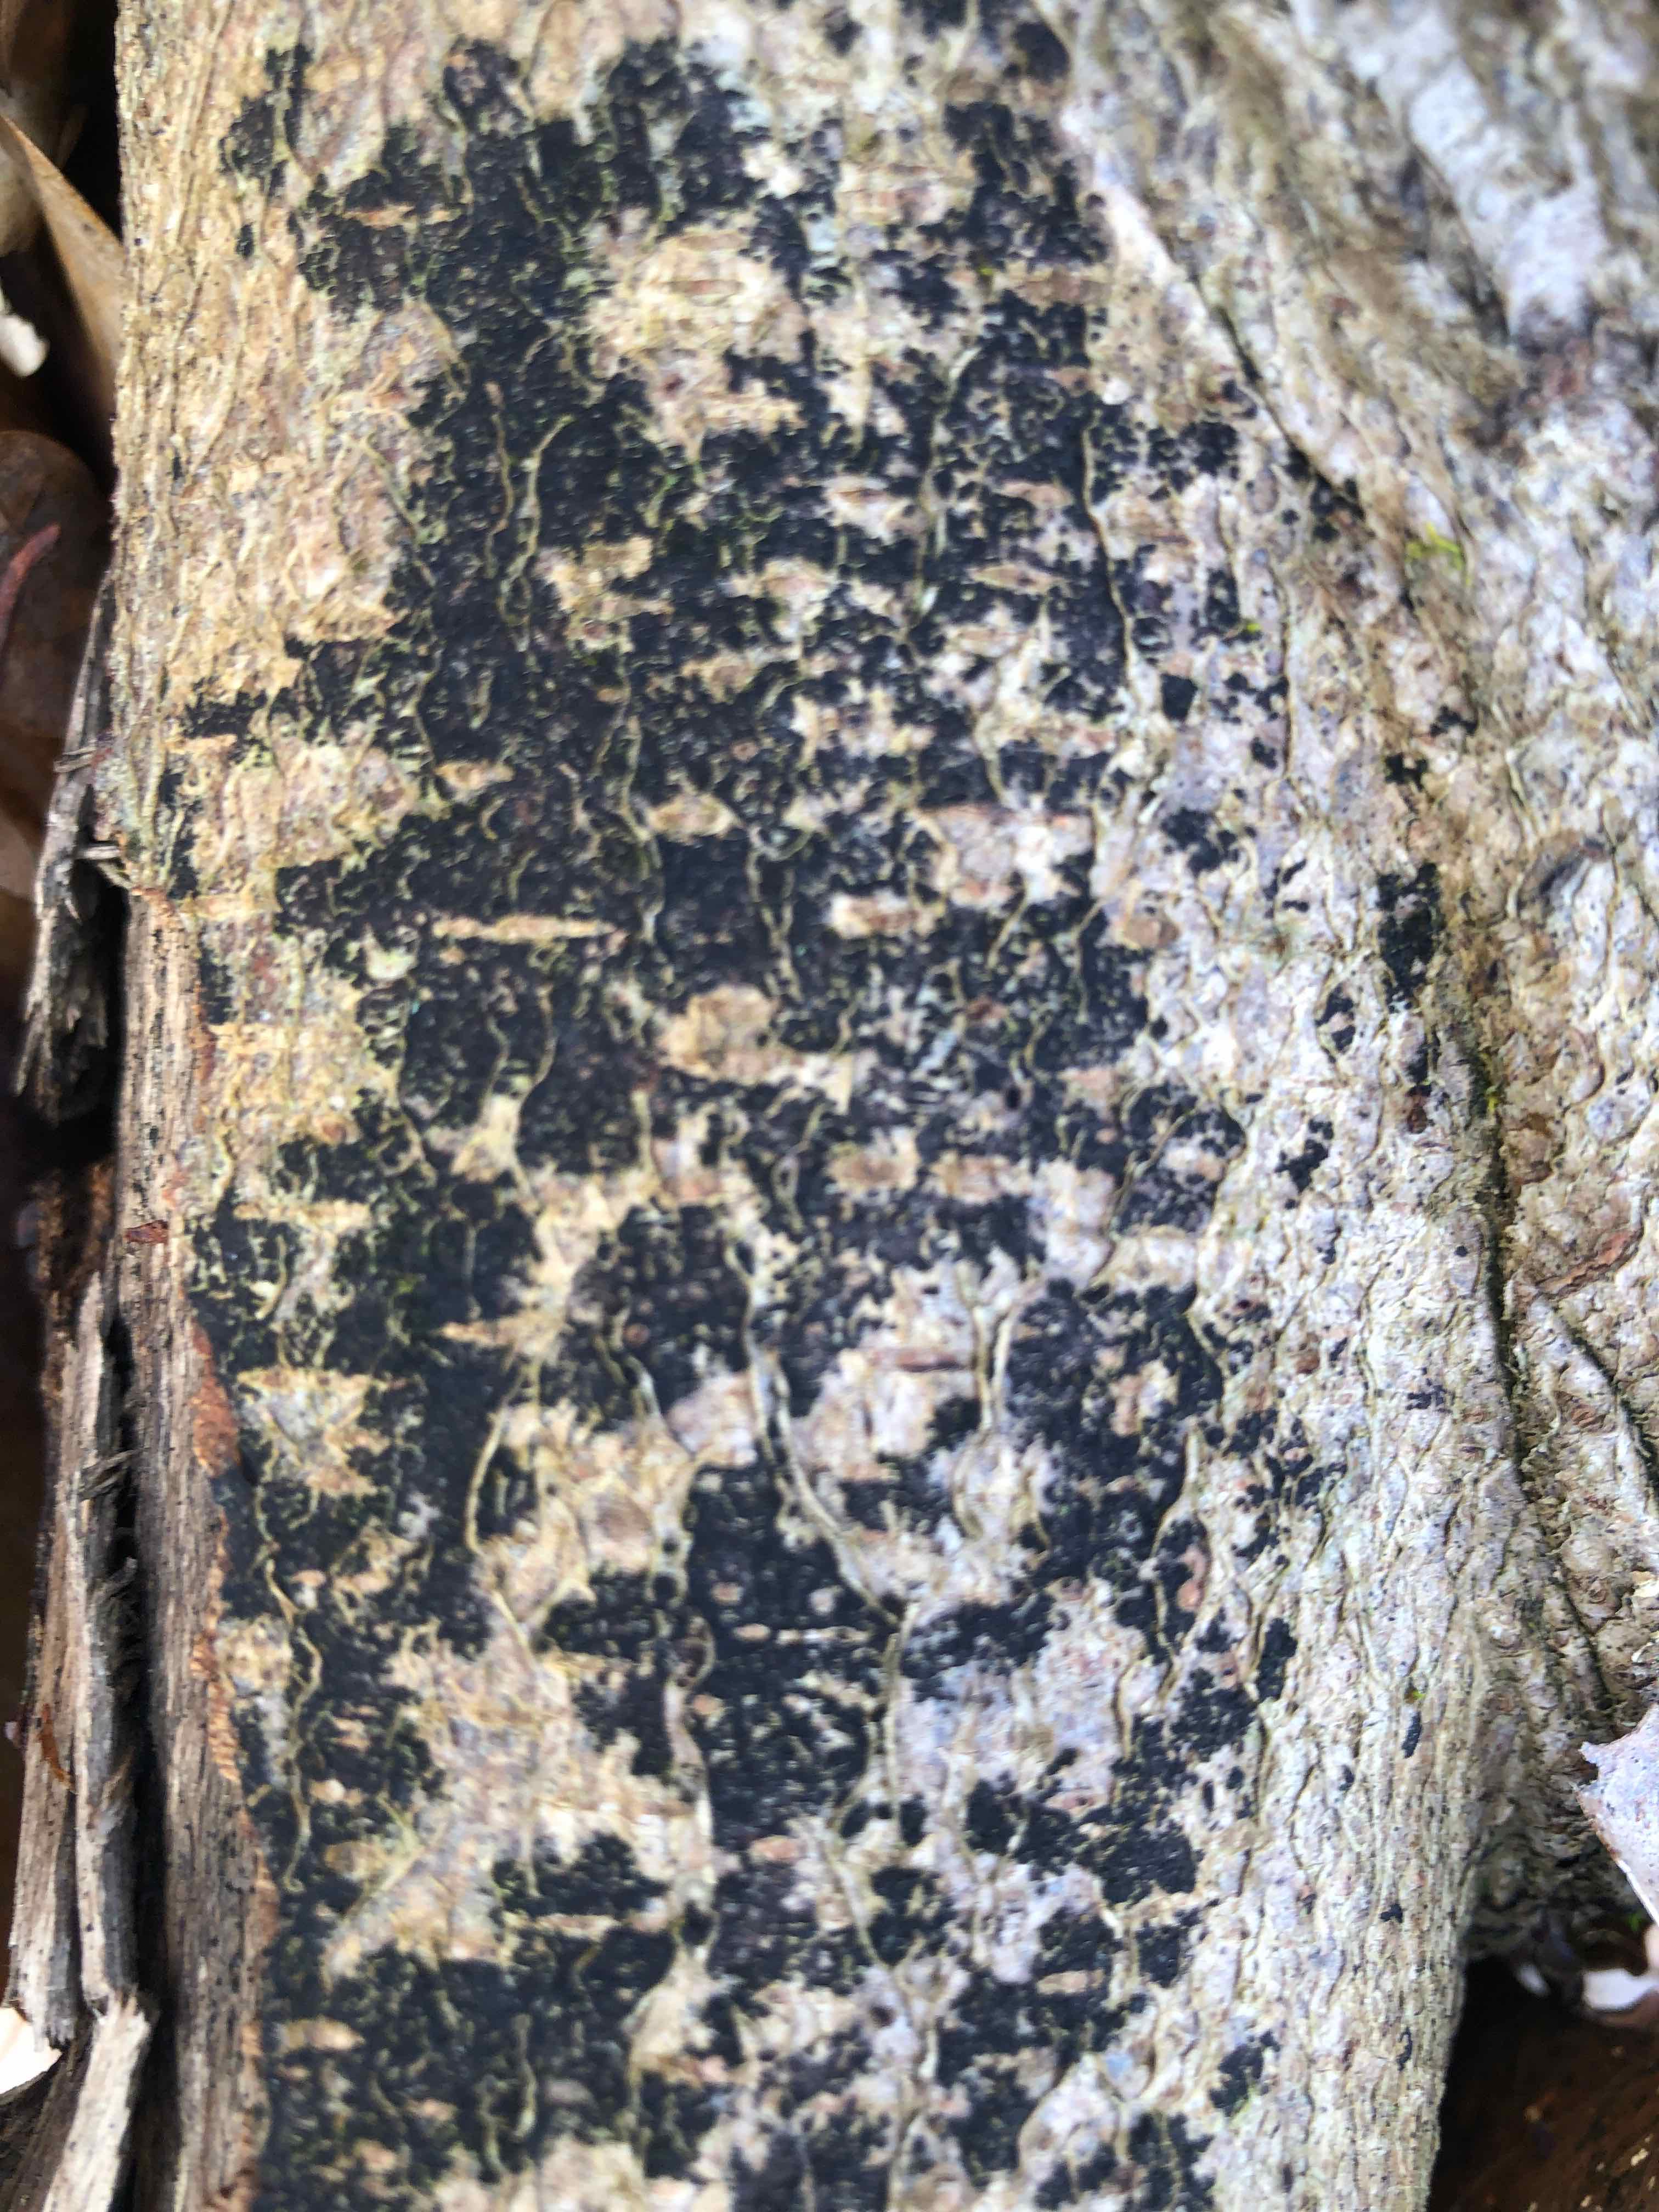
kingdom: Fungi
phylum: Ascomycota
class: Leotiomycetes
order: Rhytismatales
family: Ascodichaenaceae
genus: Ascodichaena
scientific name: Ascodichaena rugosa
